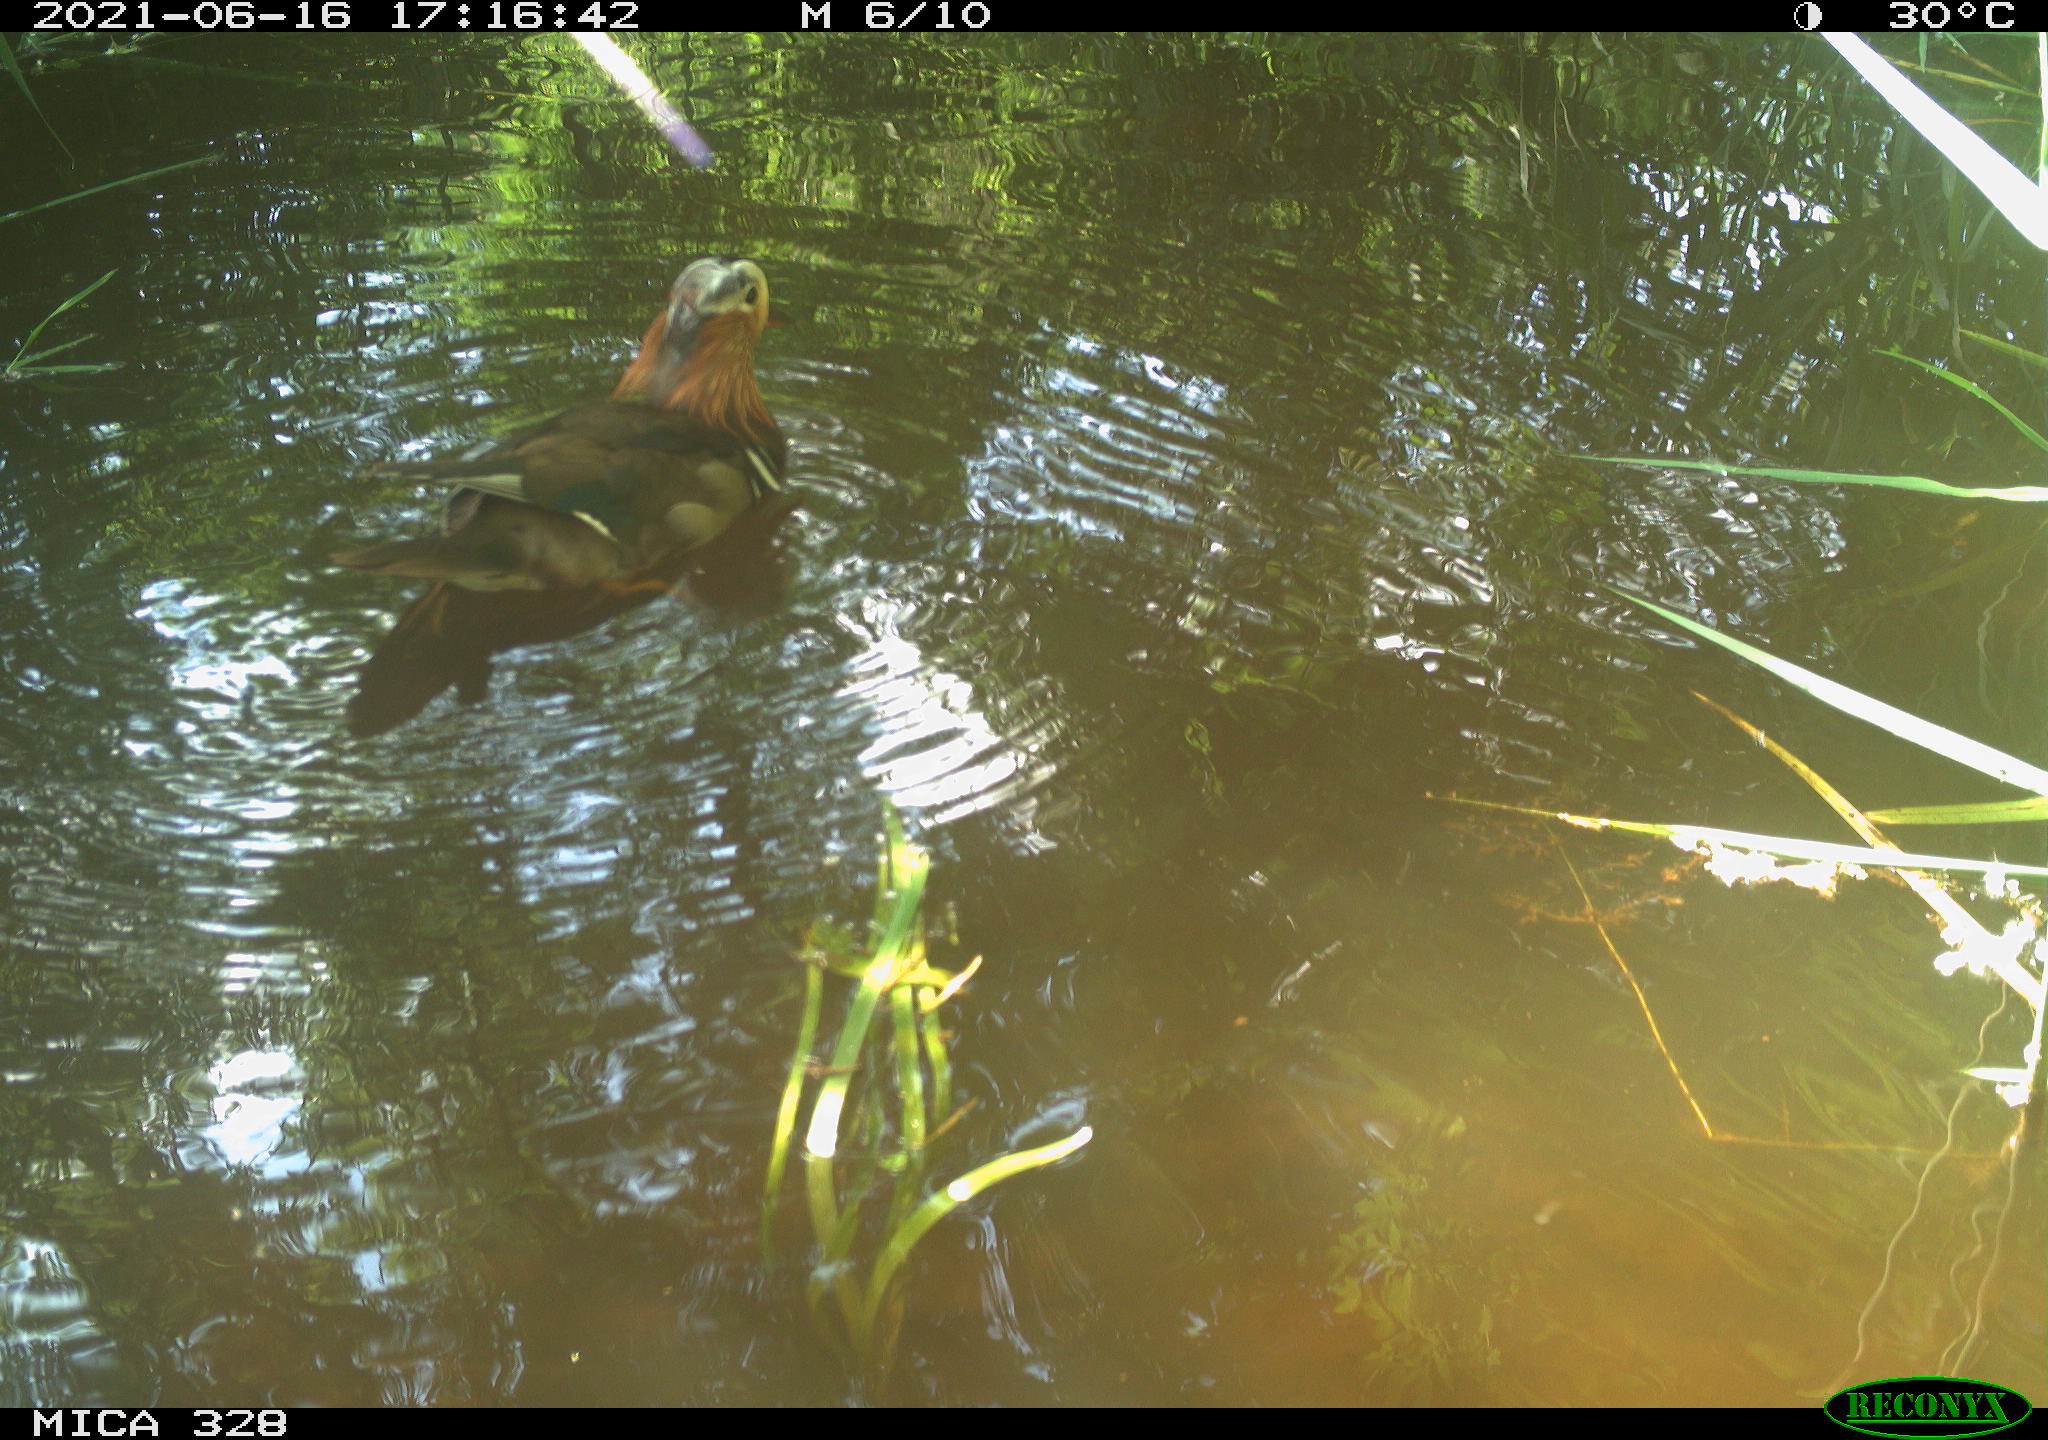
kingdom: Animalia
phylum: Chordata
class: Aves
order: Anseriformes
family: Anatidae
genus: Aix
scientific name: Aix galericulata
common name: Mandarin duck
